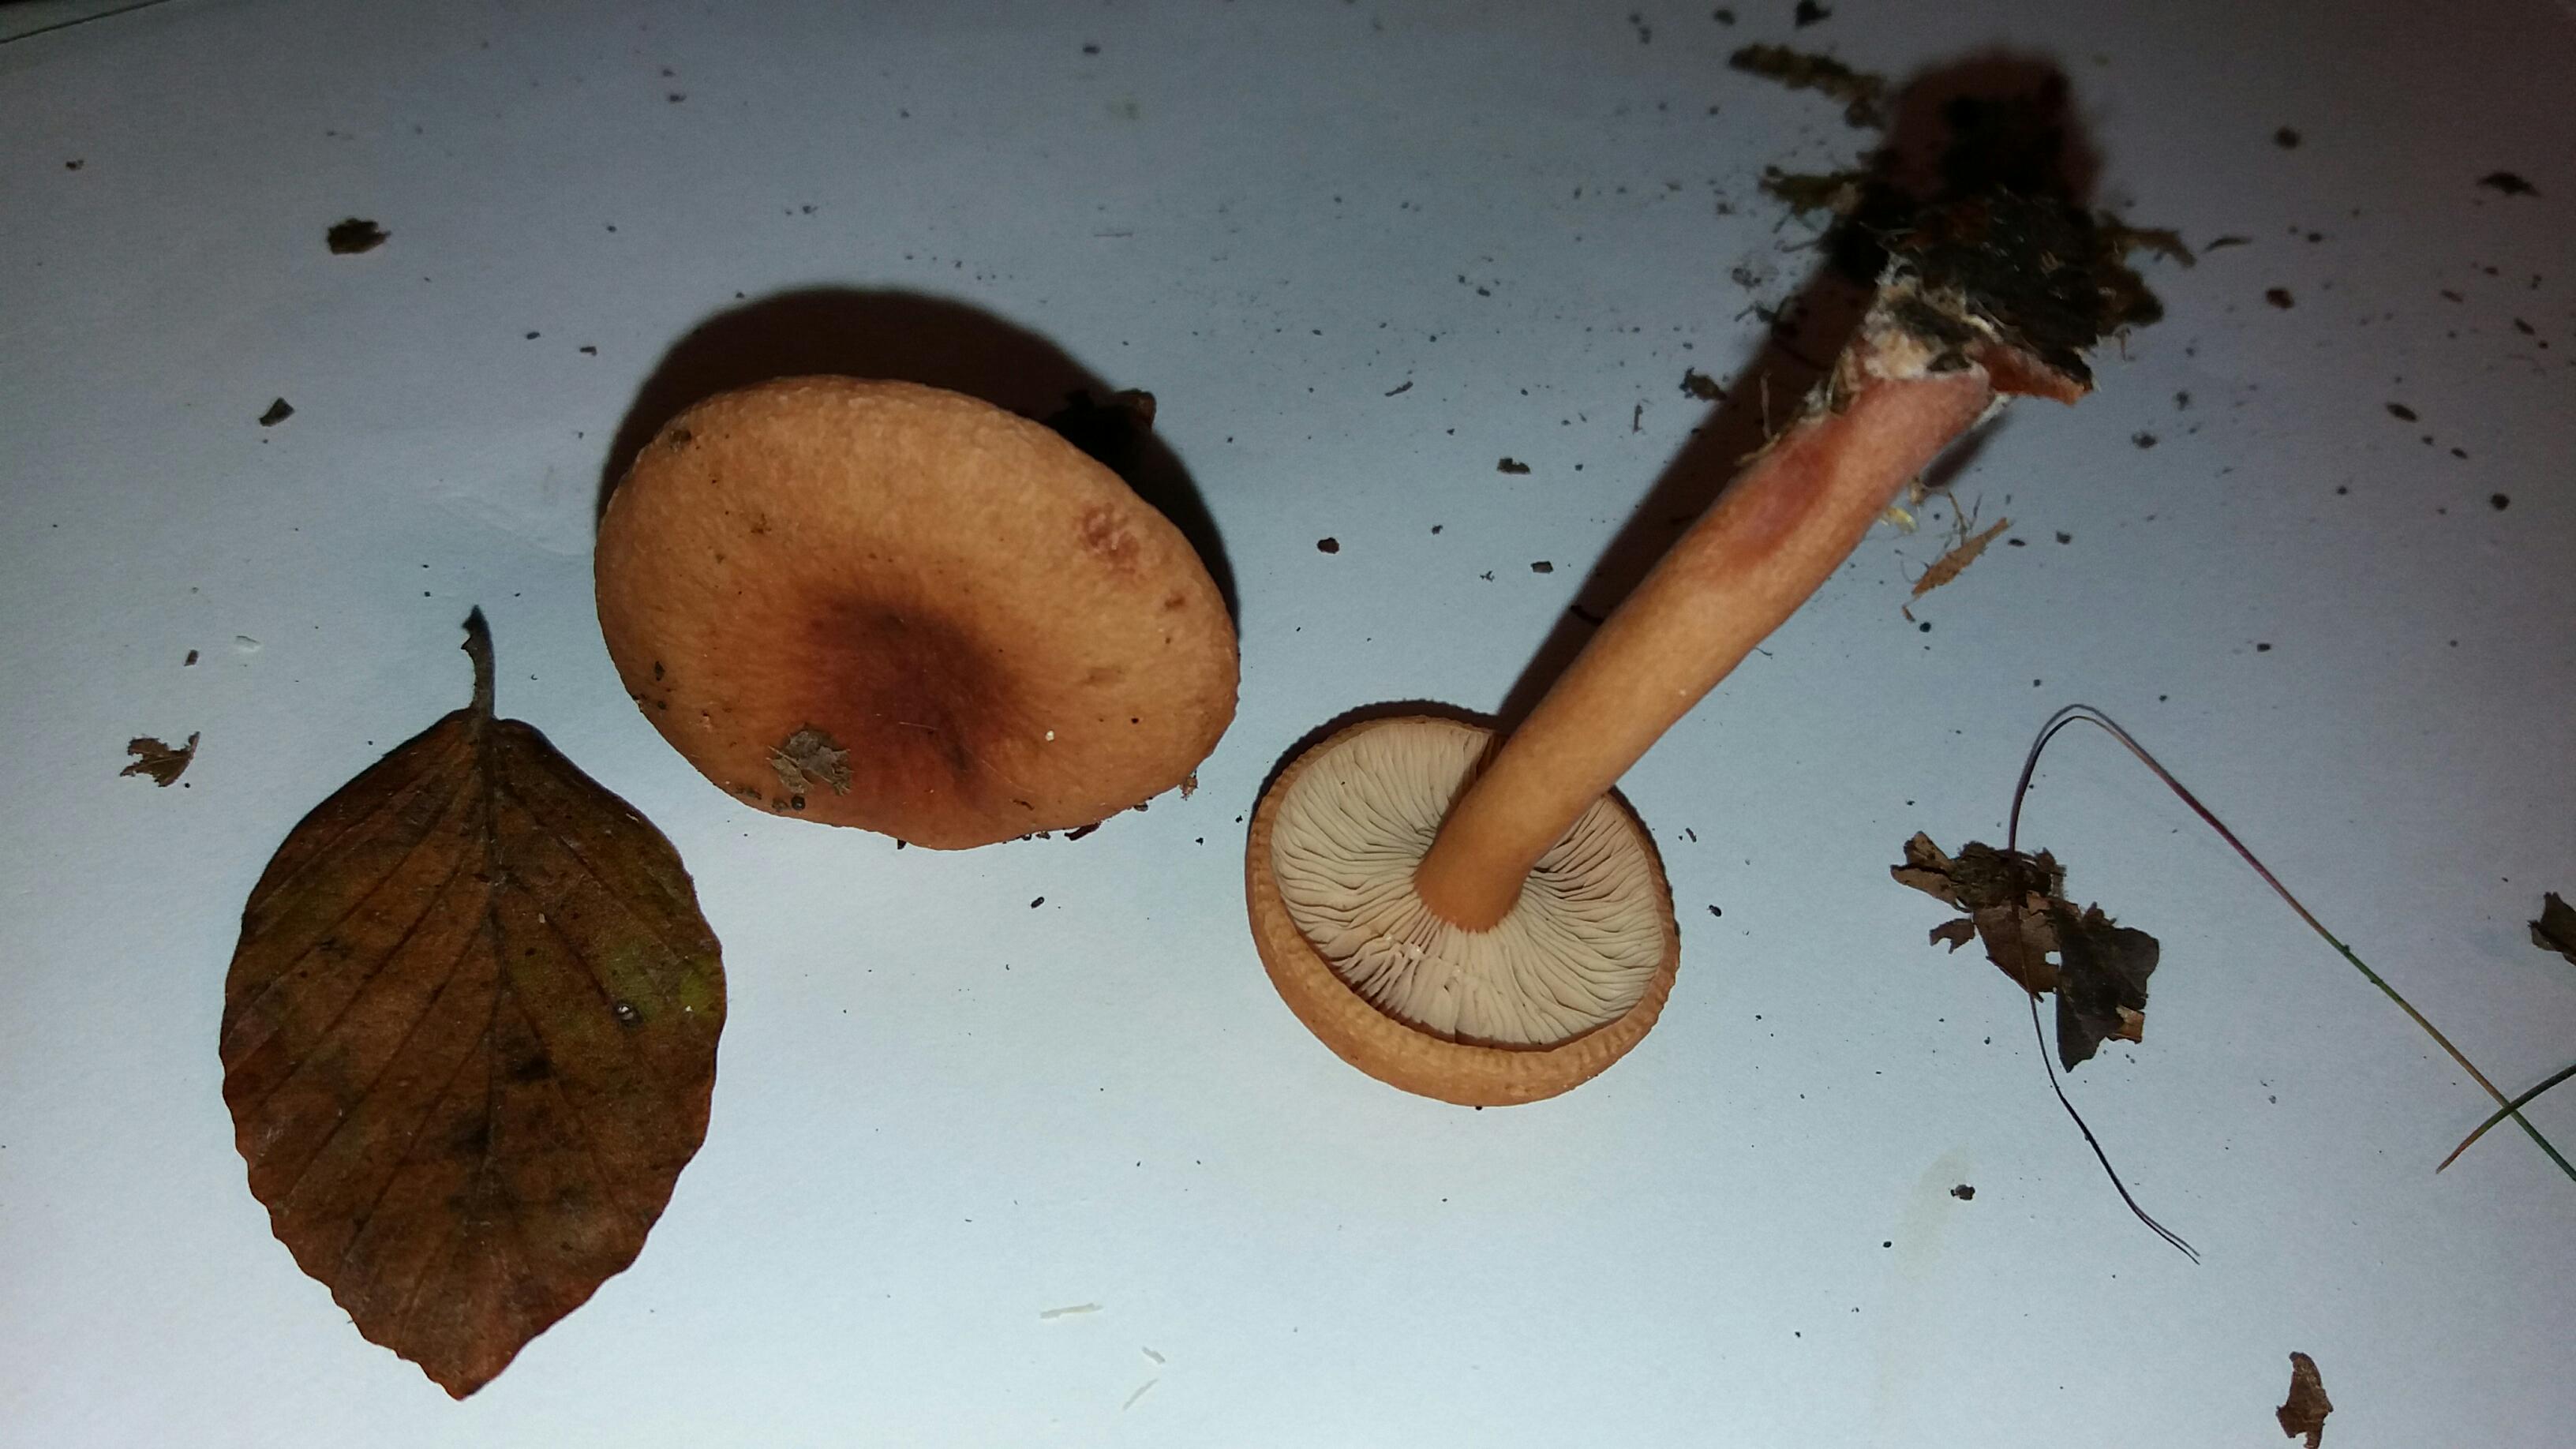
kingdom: Fungi
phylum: Basidiomycota
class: Agaricomycetes
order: Russulales
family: Russulaceae
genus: Lactarius
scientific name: Lactarius tabidus
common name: rynket mælkehat
